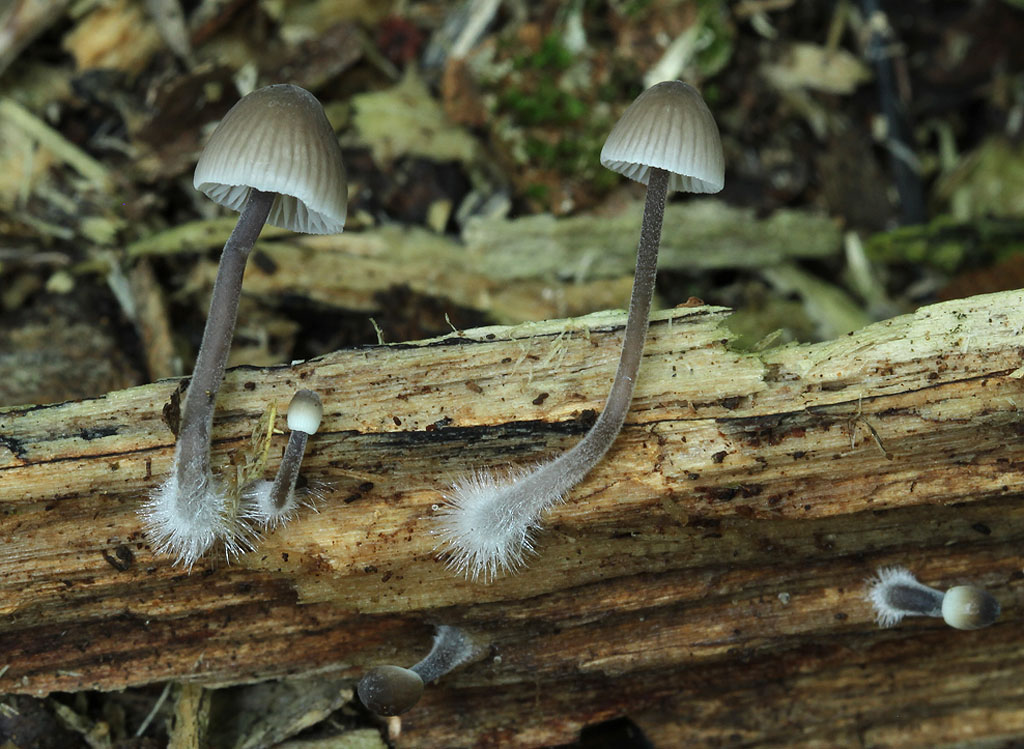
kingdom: Fungi
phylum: Basidiomycota
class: Agaricomycetes
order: Agaricales
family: Mycenaceae
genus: Mycena
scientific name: Mycena leptocephala
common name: klor-huesvamp
